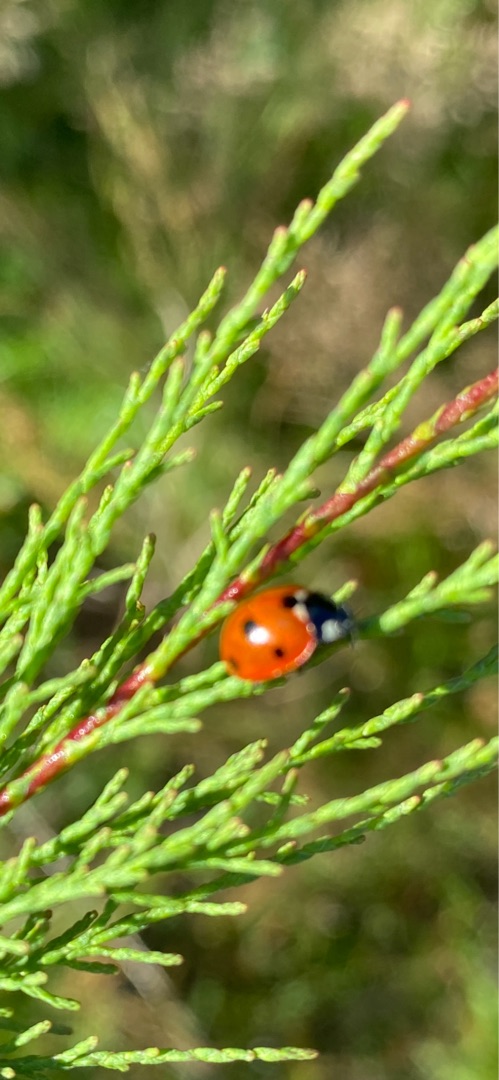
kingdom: Animalia
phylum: Arthropoda
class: Insecta
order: Coleoptera
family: Coccinellidae
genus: Coccinella
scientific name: Coccinella septempunctata
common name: Syvplettet mariehøne
